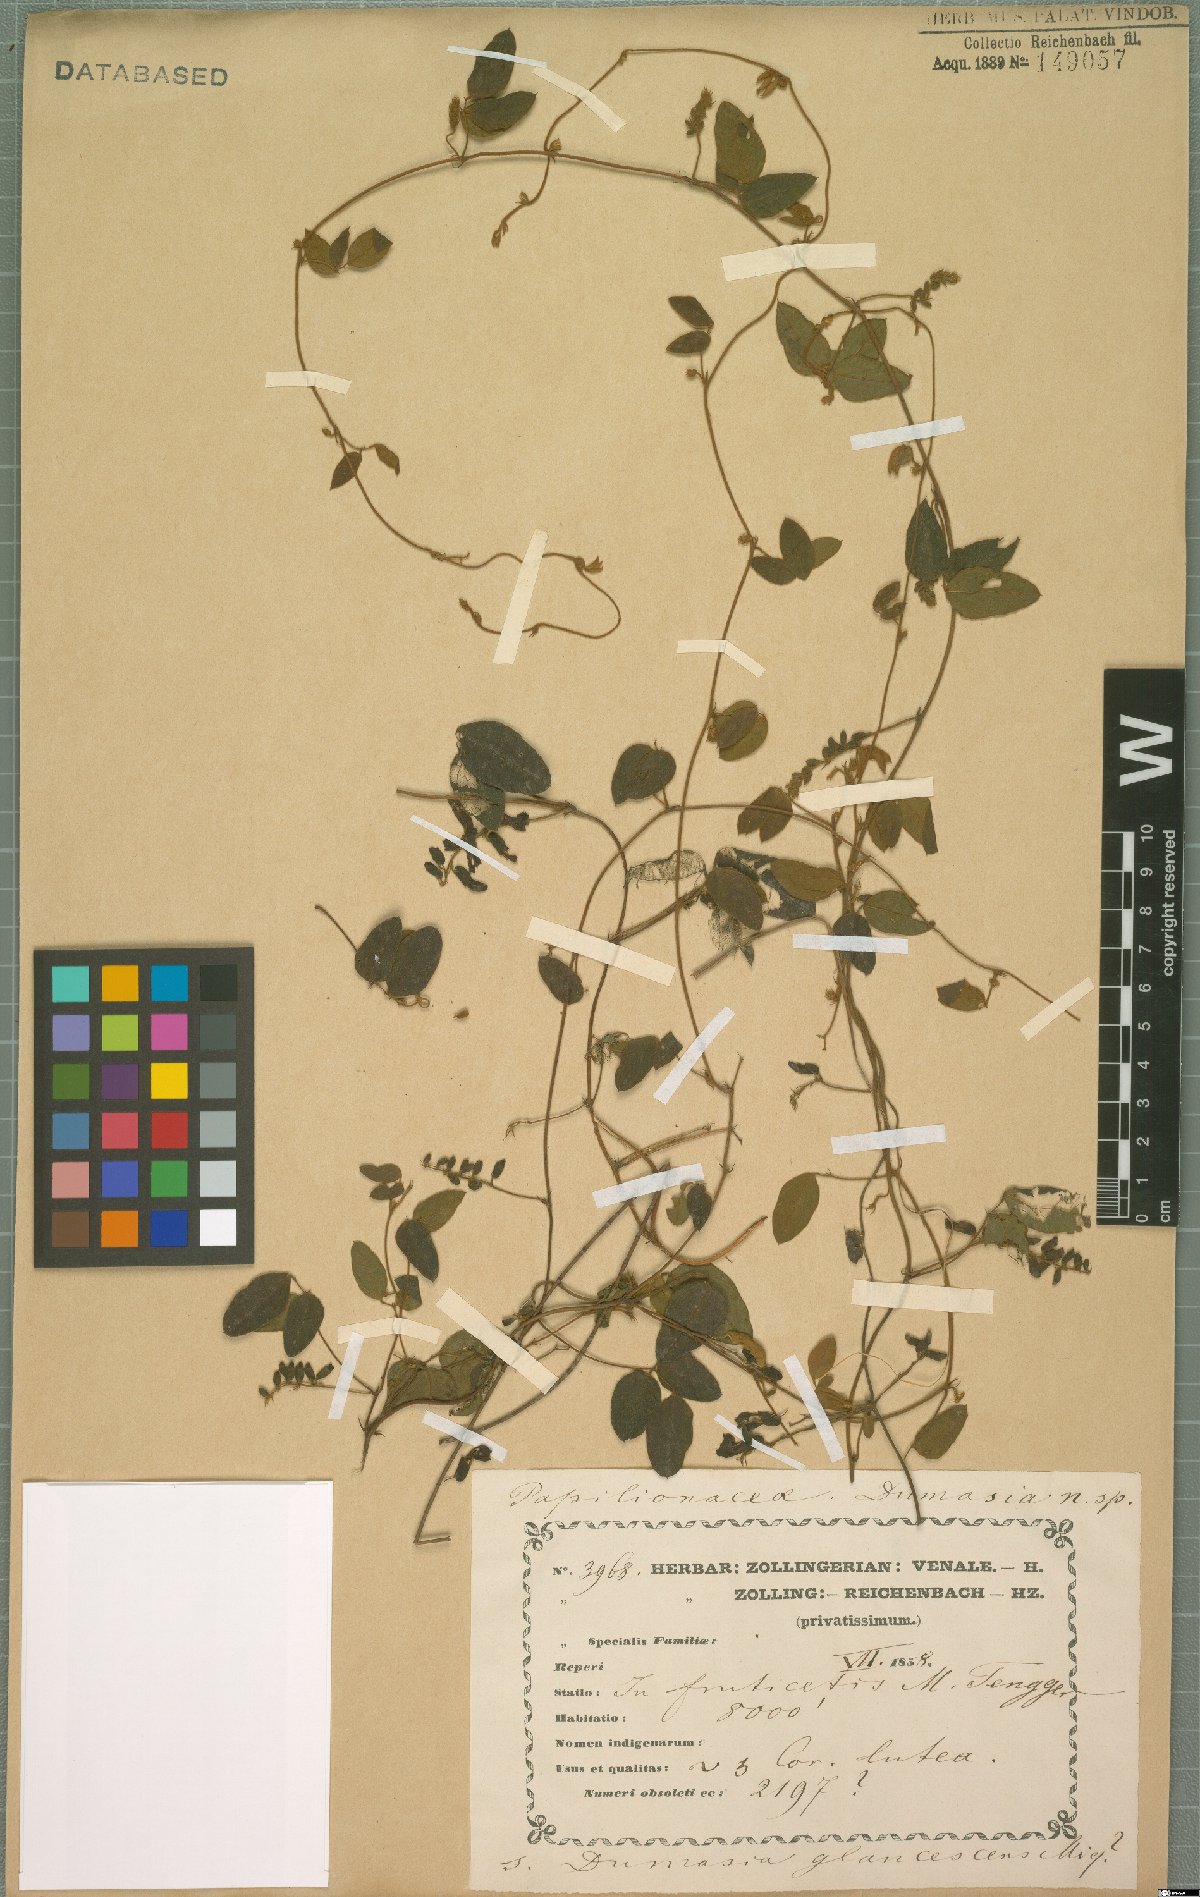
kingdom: Plantae
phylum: Tracheophyta
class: Magnoliopsida
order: Fabales
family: Fabaceae
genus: Dumasia
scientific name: Dumasia
